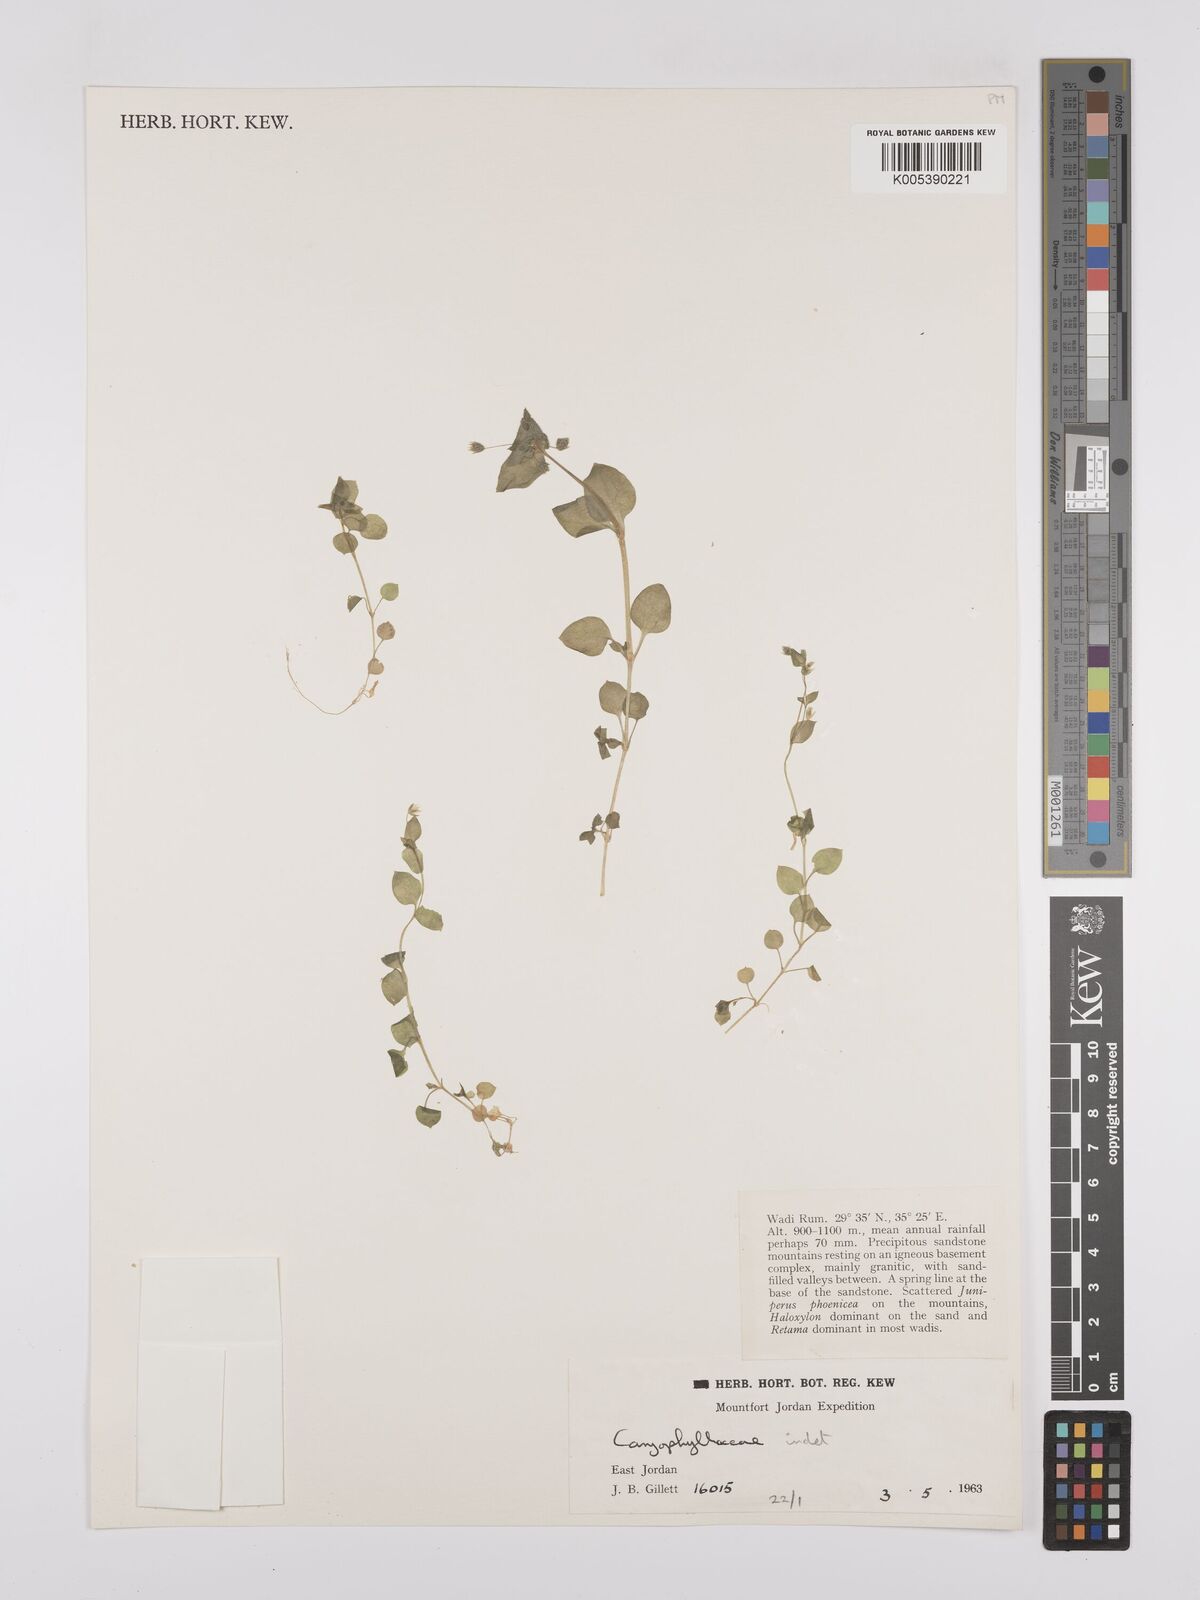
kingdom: Plantae
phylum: Tracheophyta
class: Magnoliopsida
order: Caryophyllales
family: Caryophyllaceae
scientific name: Caryophyllaceae
